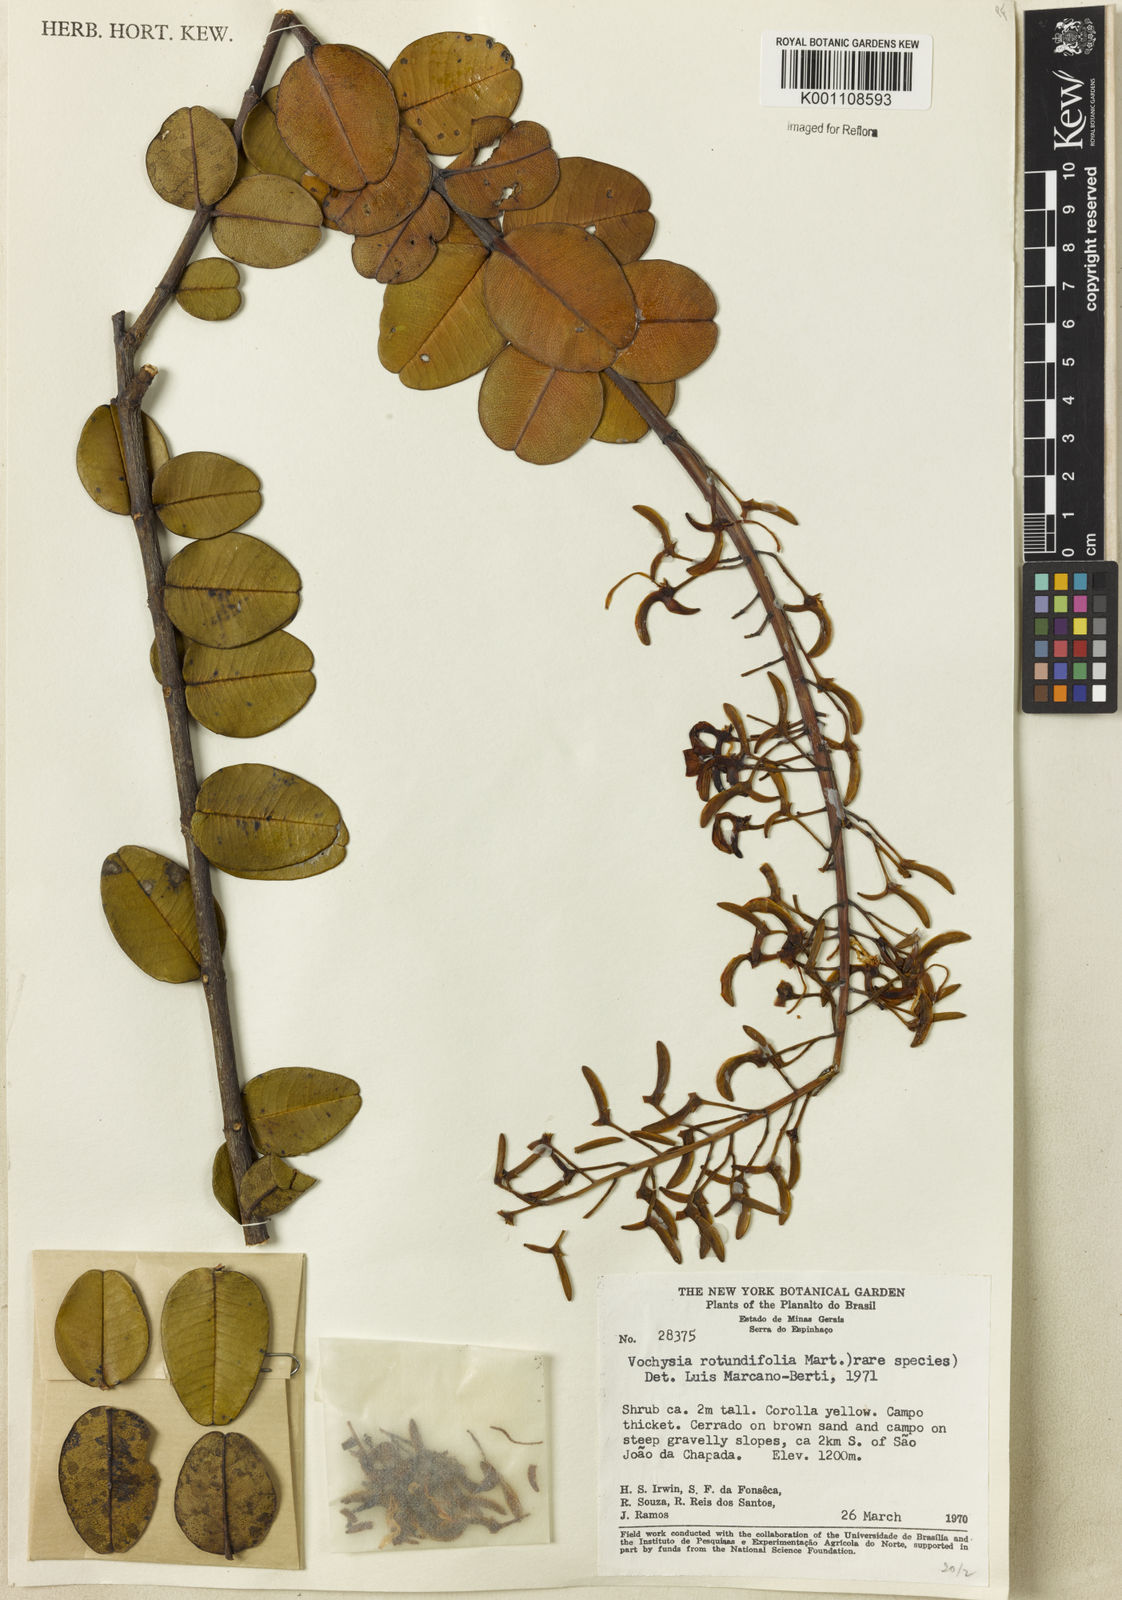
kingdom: Plantae
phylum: Tracheophyta
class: Magnoliopsida
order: Myrtales
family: Vochysiaceae
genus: Vochysia
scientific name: Vochysia rotundifolia
